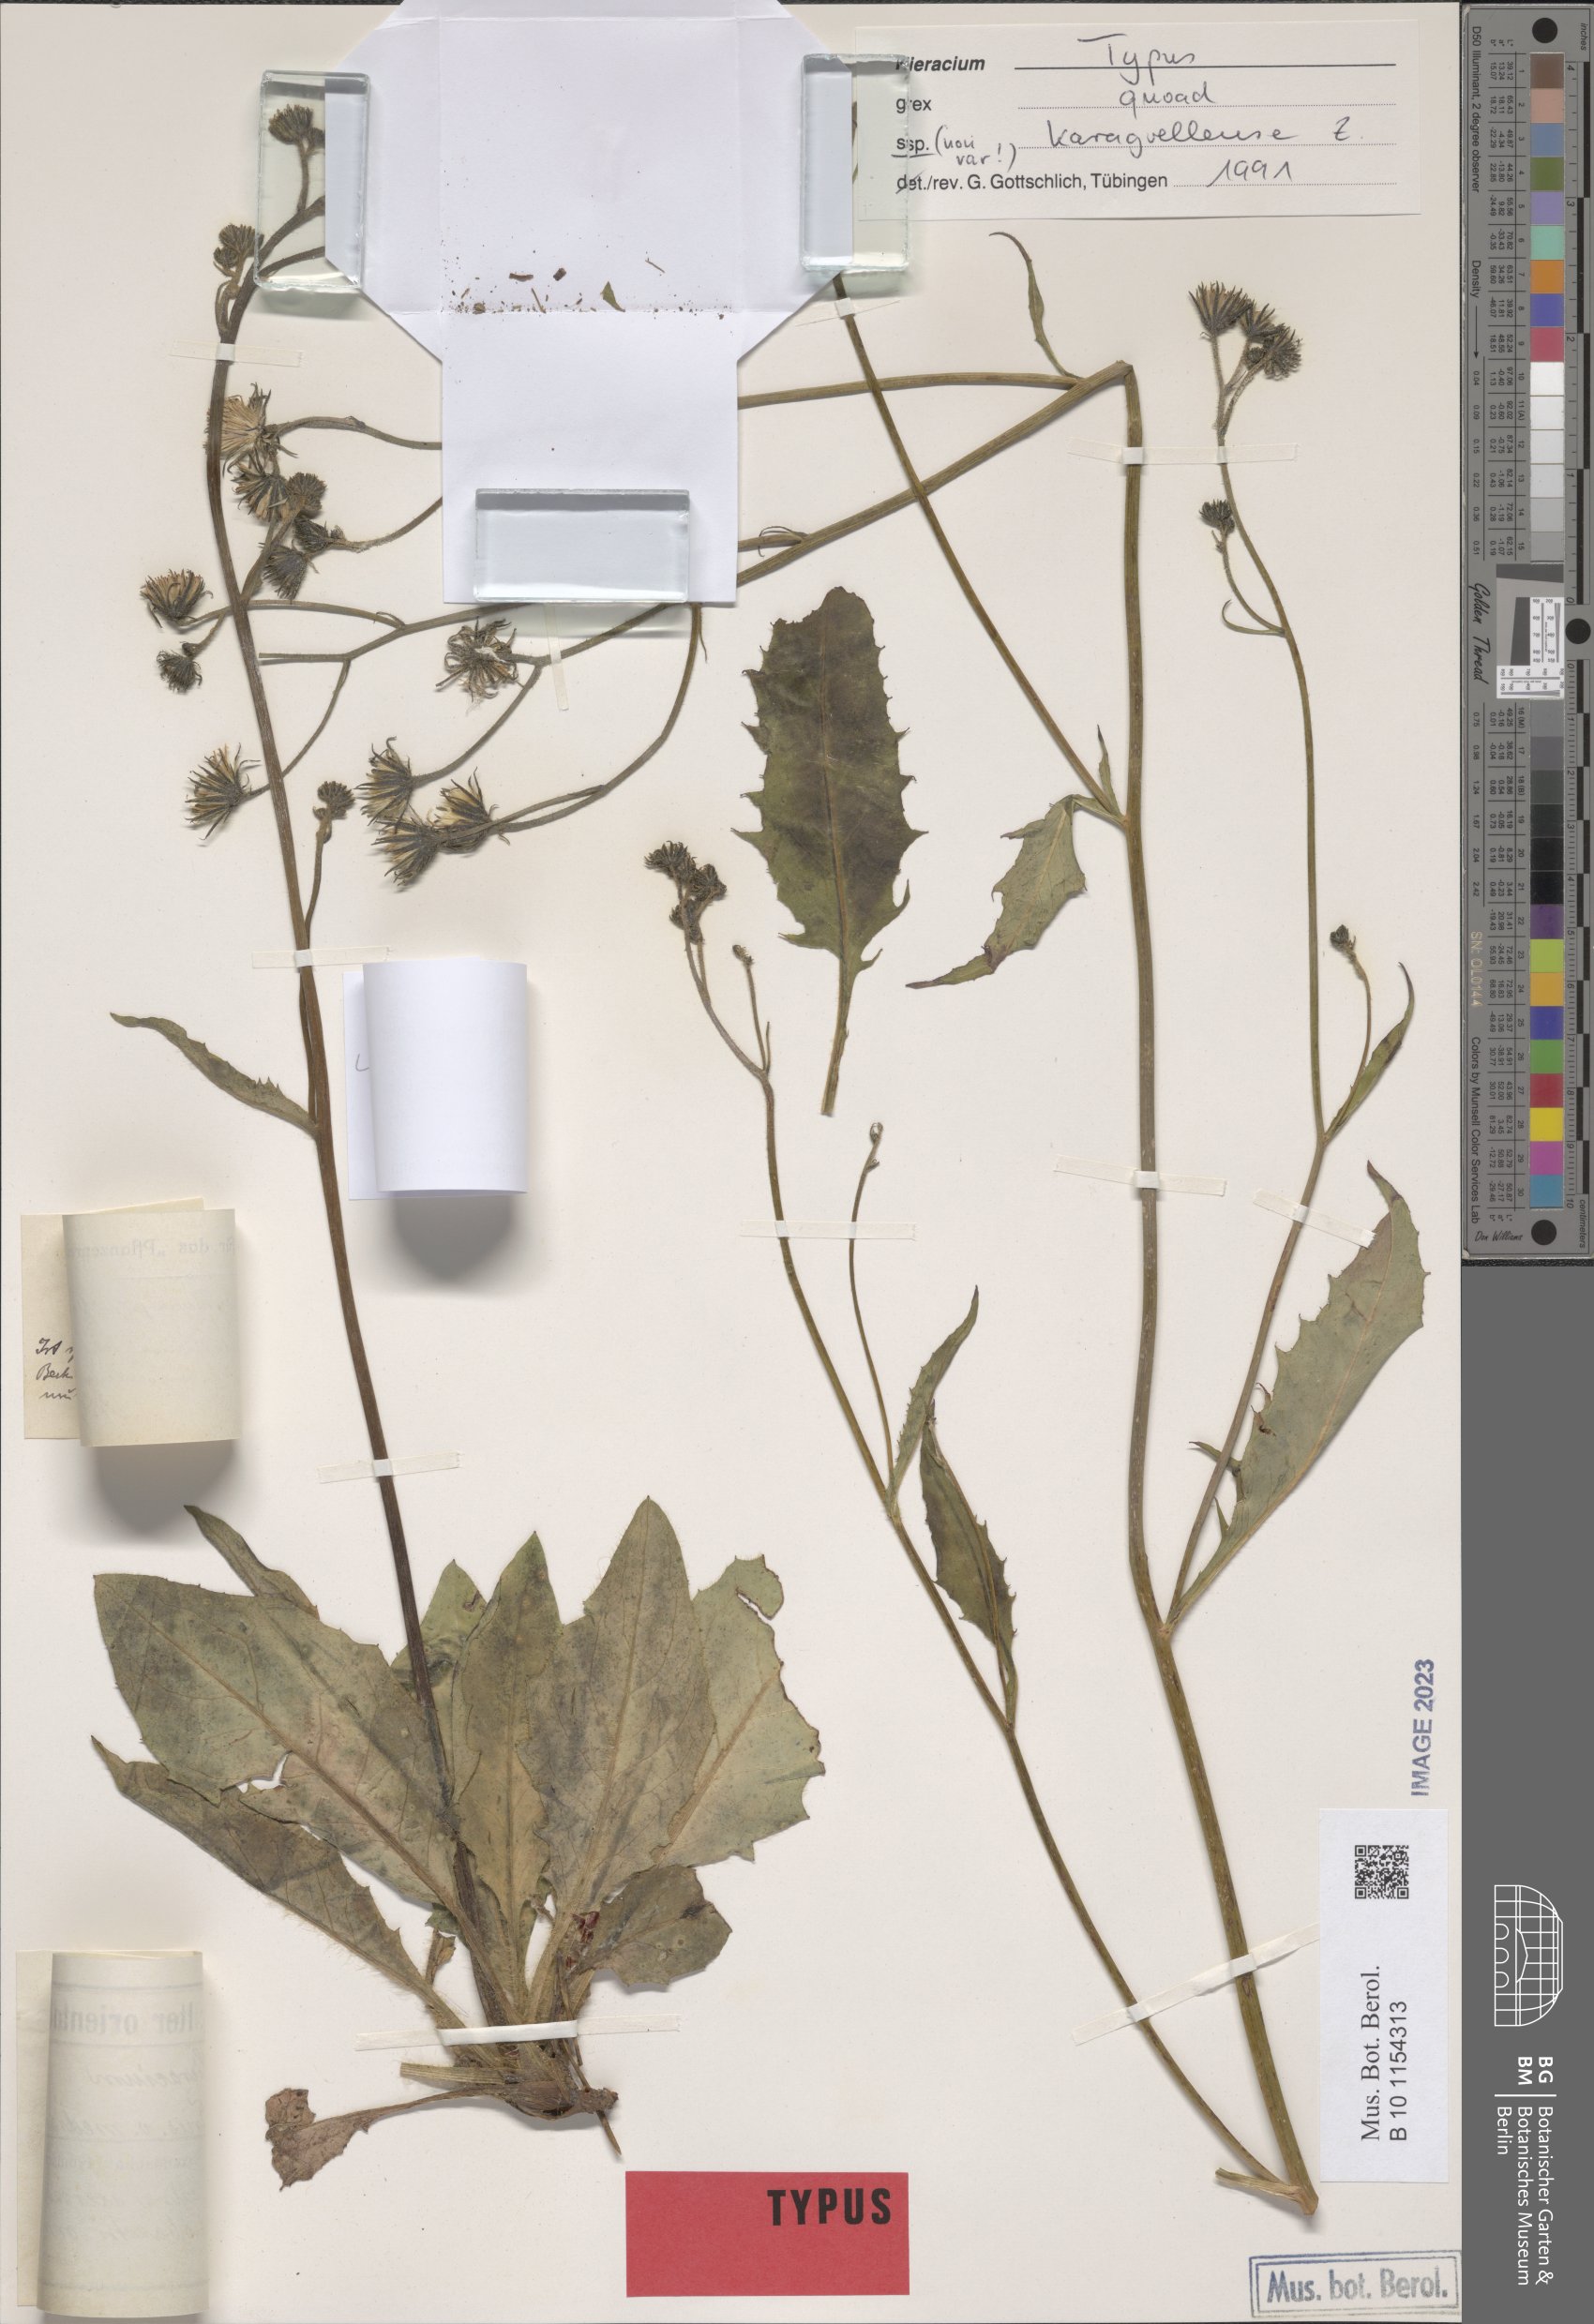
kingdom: Plantae
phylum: Tracheophyta
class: Magnoliopsida
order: Asterales
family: Asteraceae
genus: Hieracium
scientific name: Hieracium transiens
